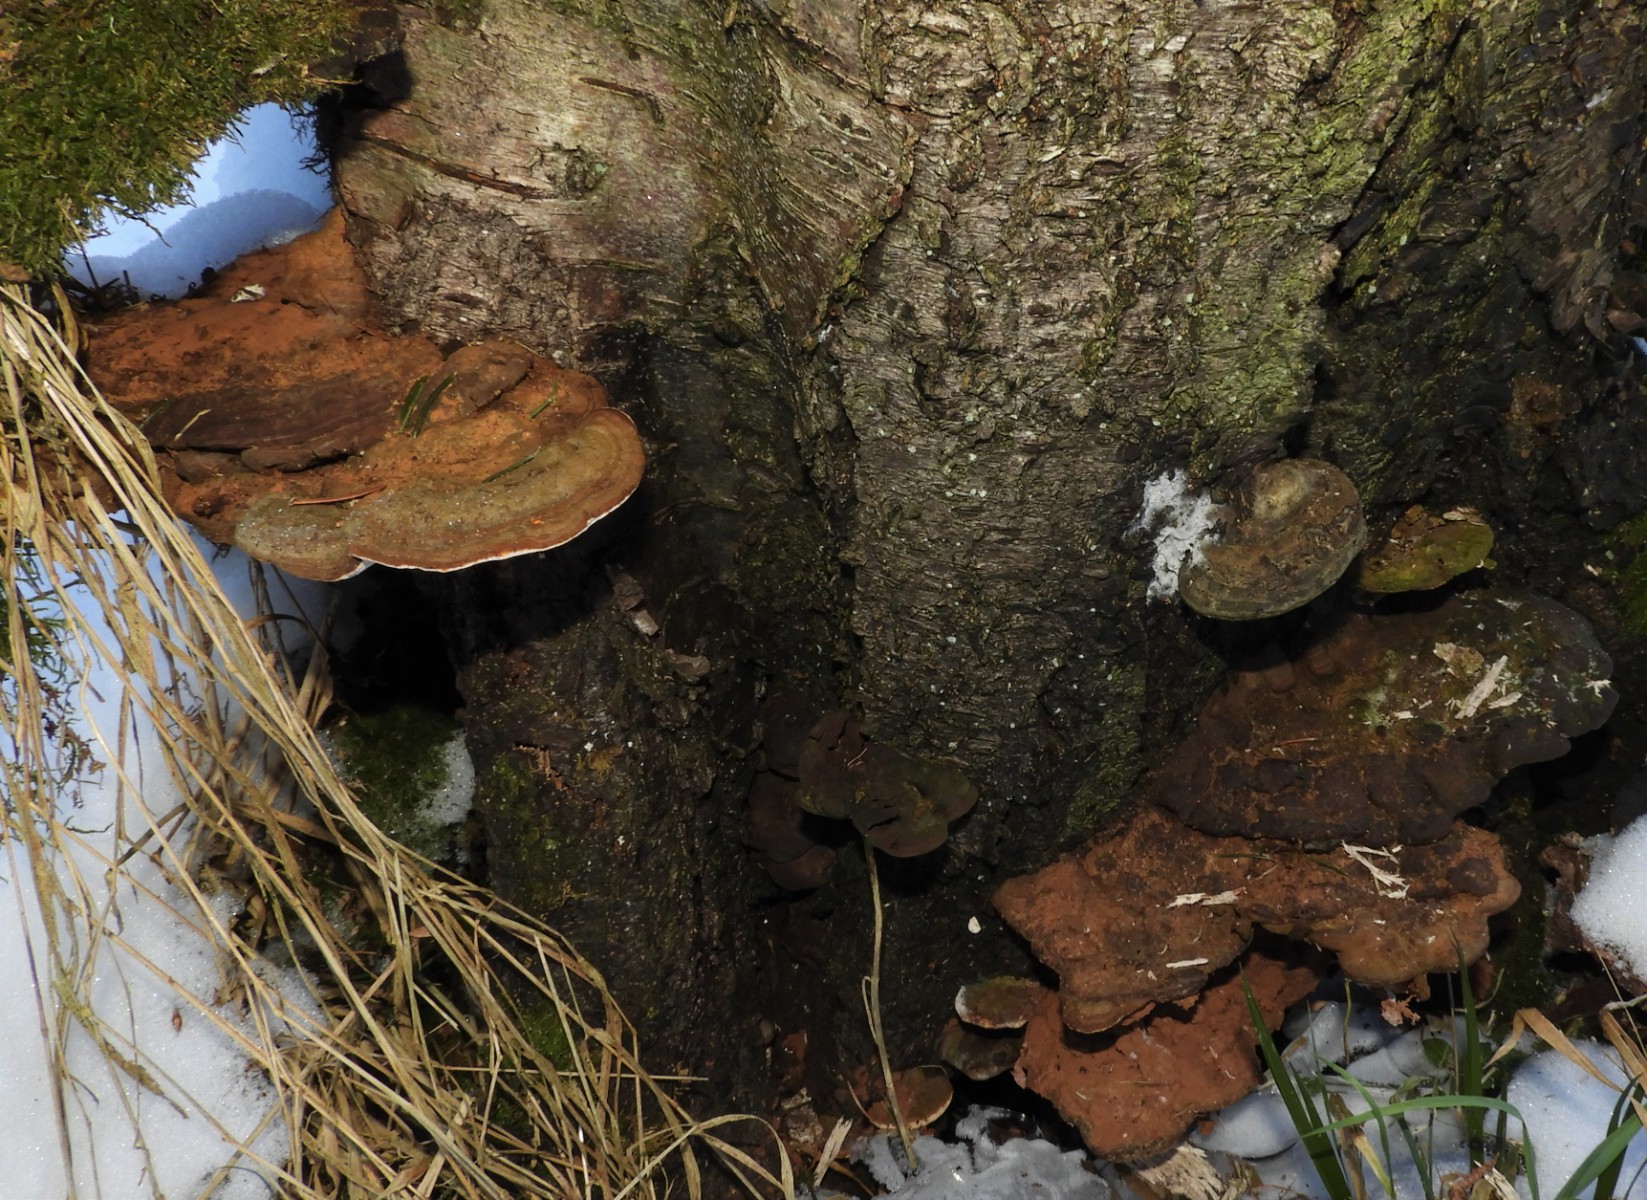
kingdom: Fungi
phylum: Basidiomycota
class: Agaricomycetes
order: Polyporales
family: Polyporaceae
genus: Ganoderma
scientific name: Ganoderma applanatum
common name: flad lakporesvamp
